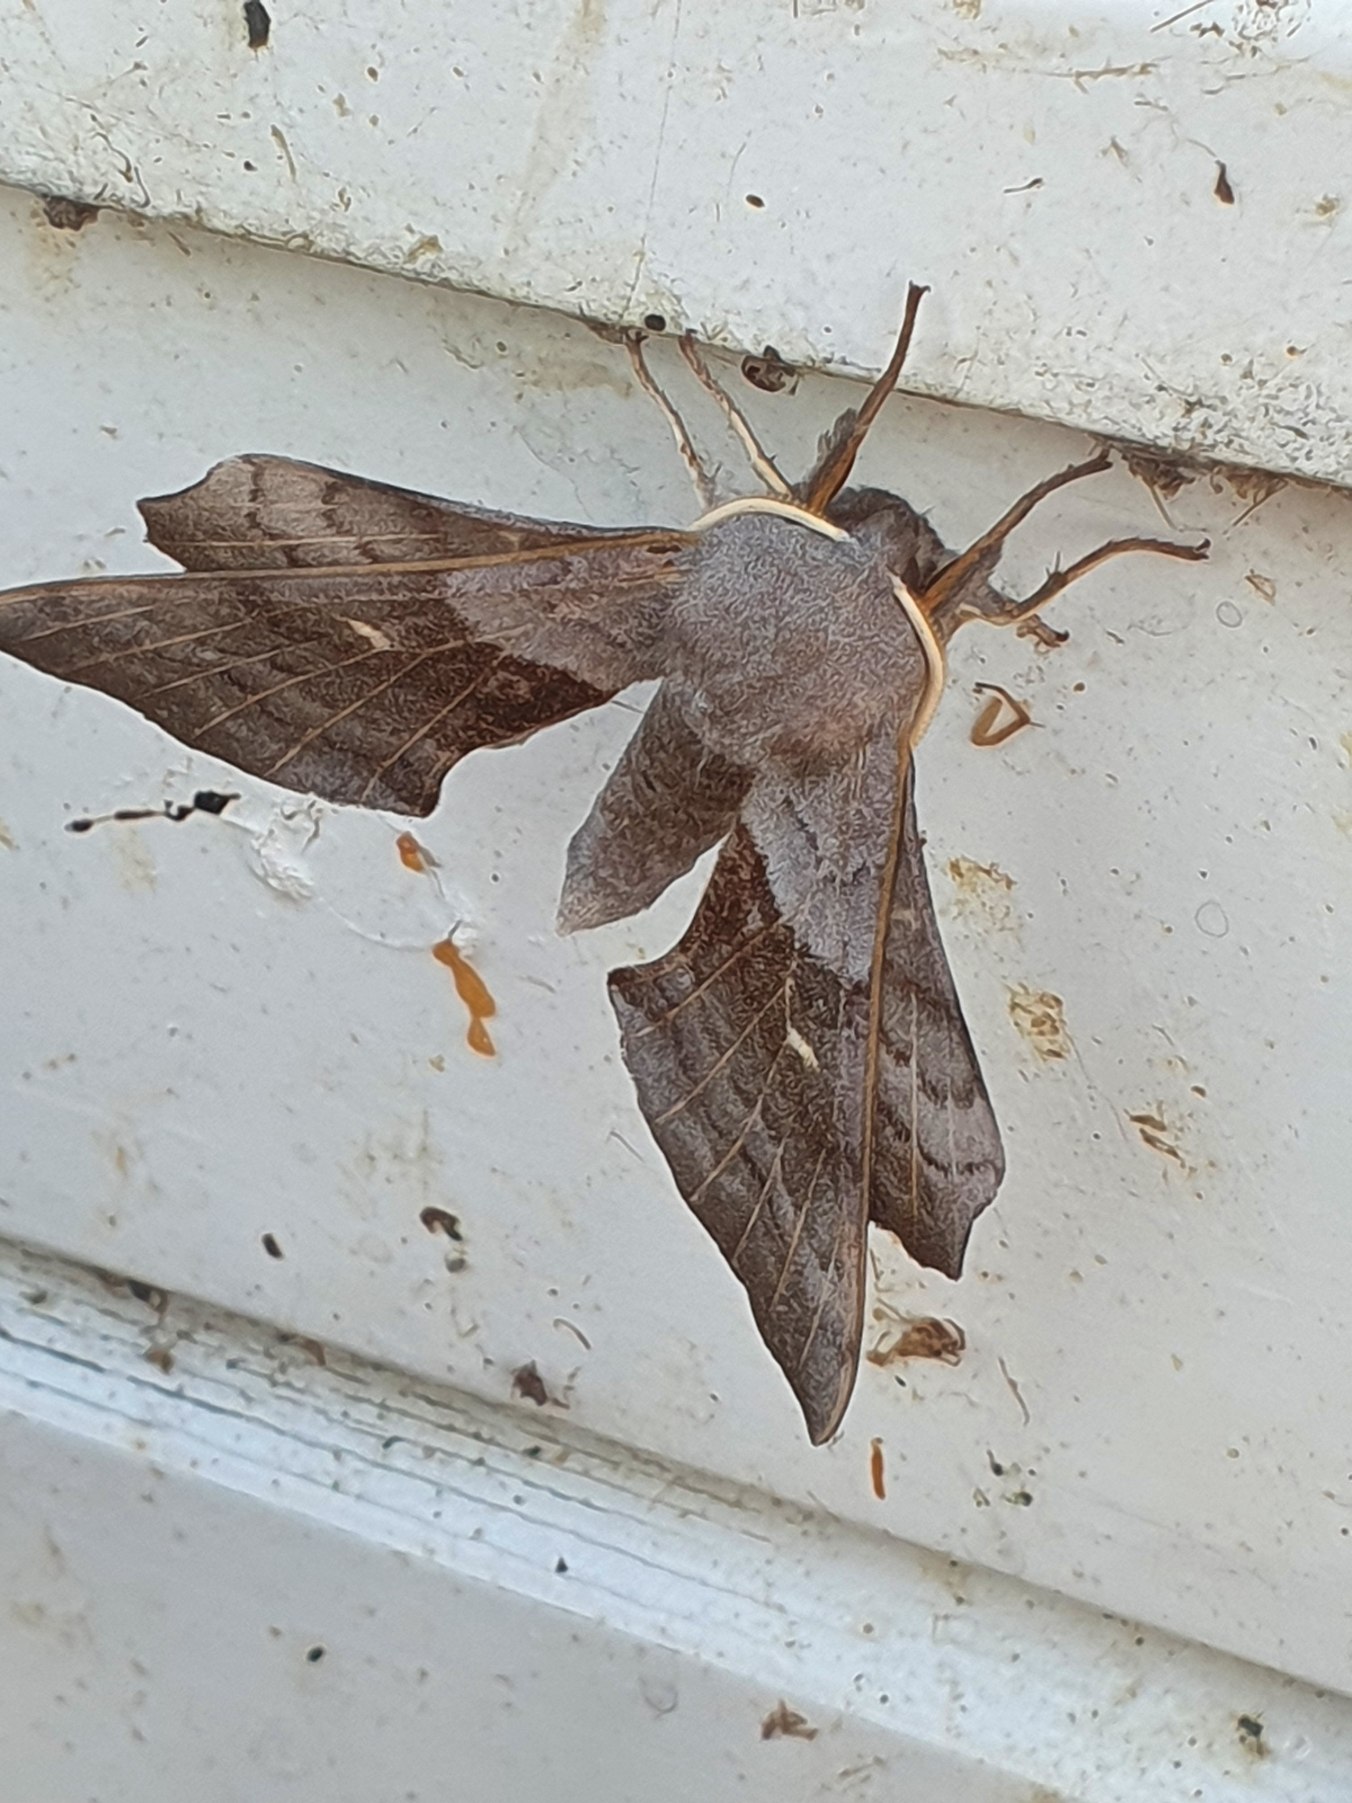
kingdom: Animalia
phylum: Arthropoda
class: Insecta
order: Lepidoptera
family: Sphingidae
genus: Laothoe
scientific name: Laothoe populi
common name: Poppelsværmer
